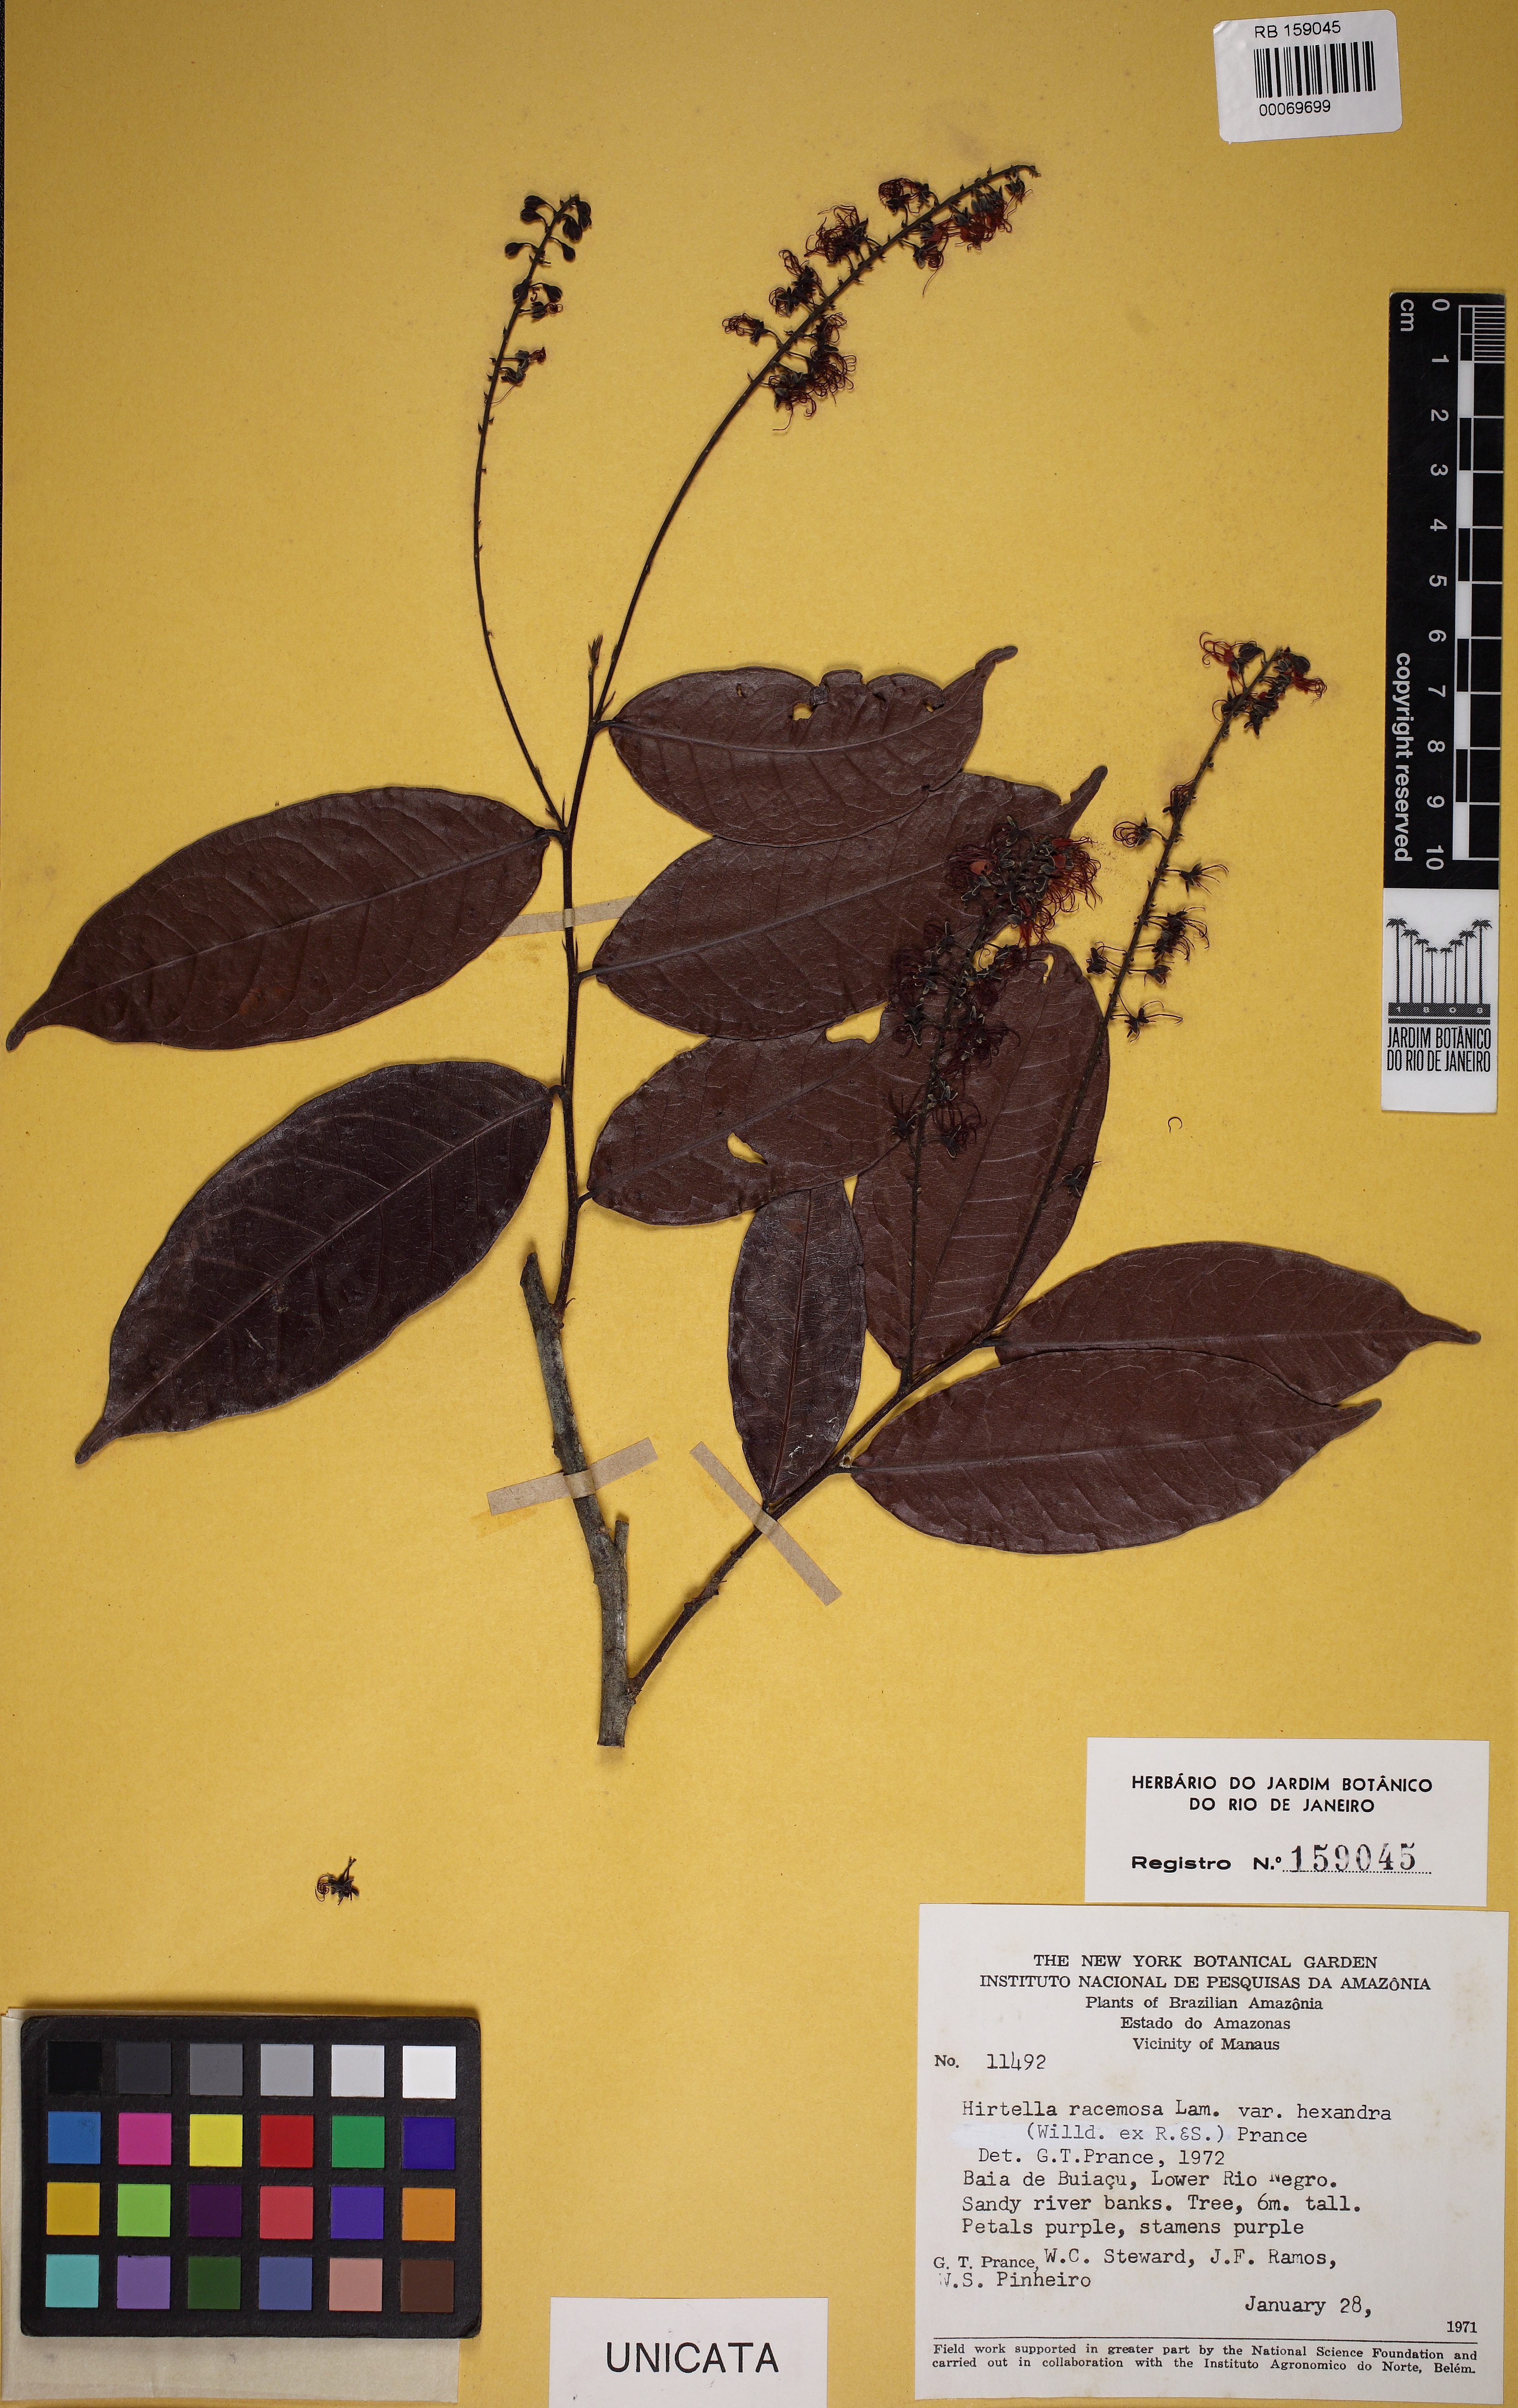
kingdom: Plantae
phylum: Tracheophyta
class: Magnoliopsida
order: Malpighiales
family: Chrysobalanaceae
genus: Hirtella
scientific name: Hirtella racemosa
